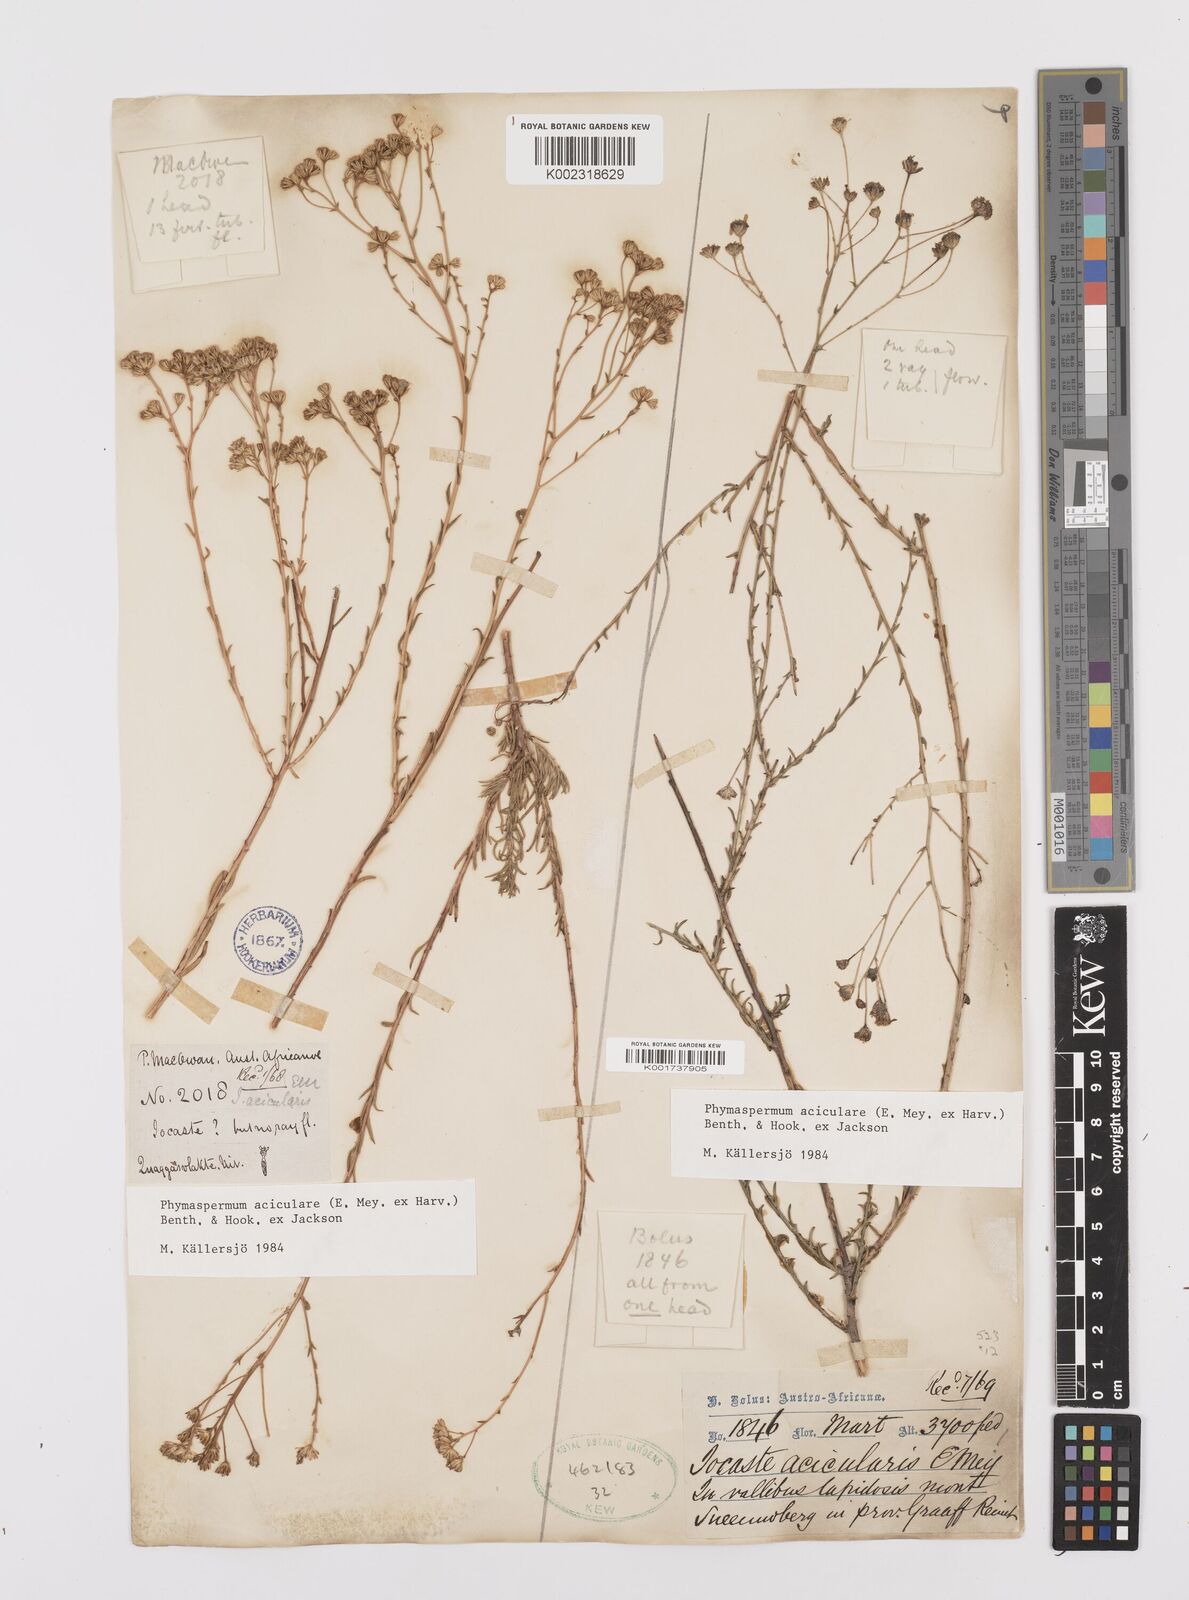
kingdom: Plantae
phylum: Tracheophyta
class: Magnoliopsida
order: Asterales
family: Asteraceae
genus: Phymaspermum
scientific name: Phymaspermum aciculare
